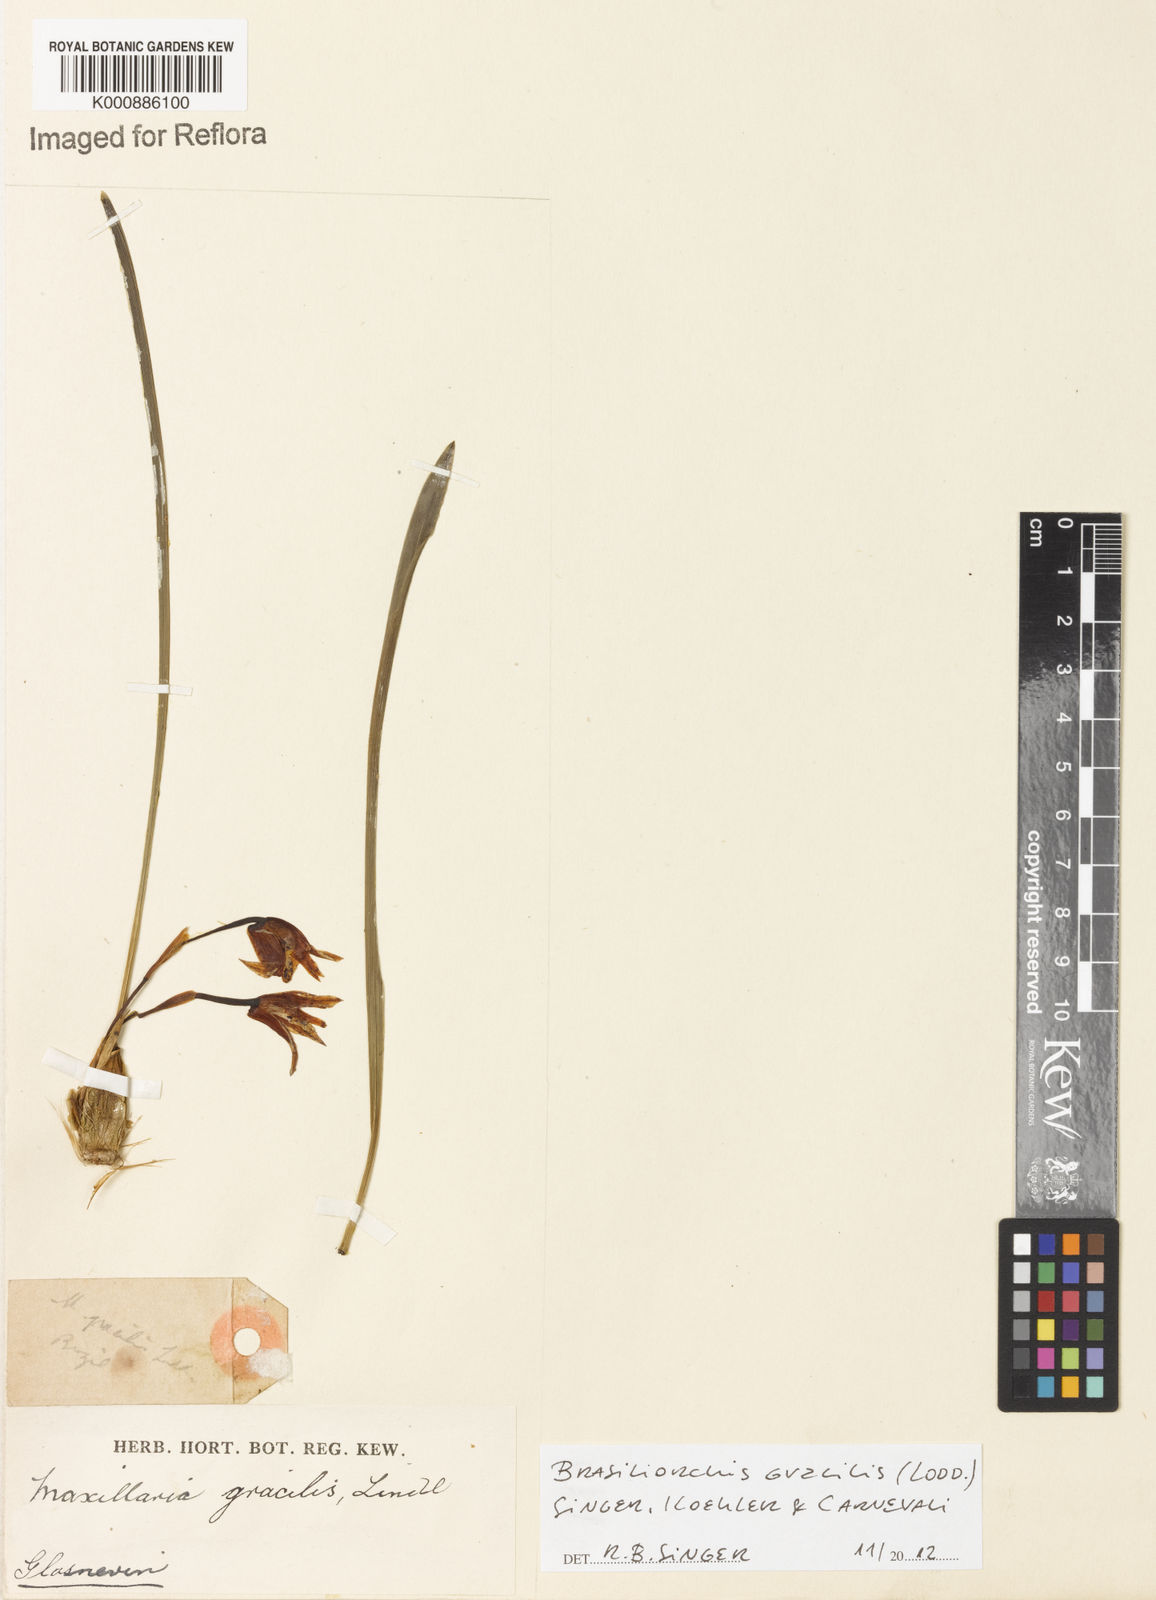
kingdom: Plantae
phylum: Tracheophyta
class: Liliopsida
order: Asparagales
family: Orchidaceae
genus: Maxillaria
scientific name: Maxillaria
